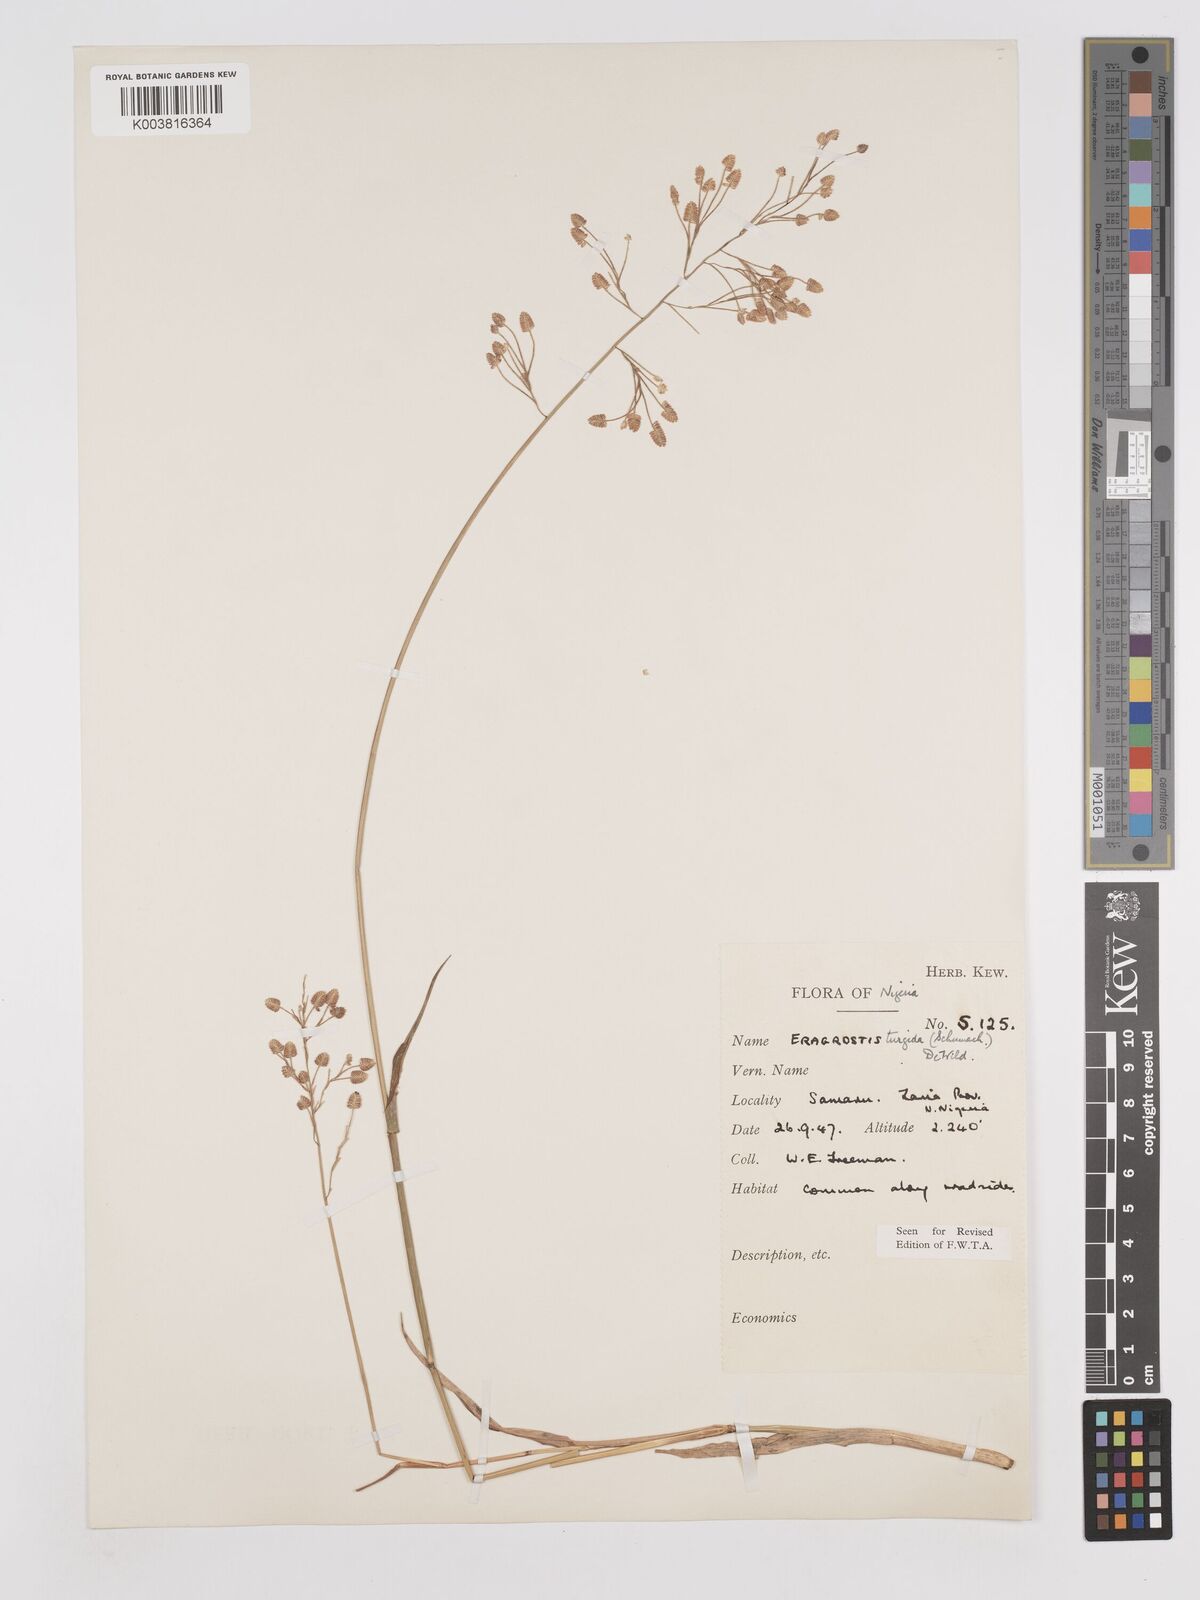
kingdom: Plantae
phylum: Tracheophyta
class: Liliopsida
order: Poales
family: Poaceae
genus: Eragrostis
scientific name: Eragrostis turgida
